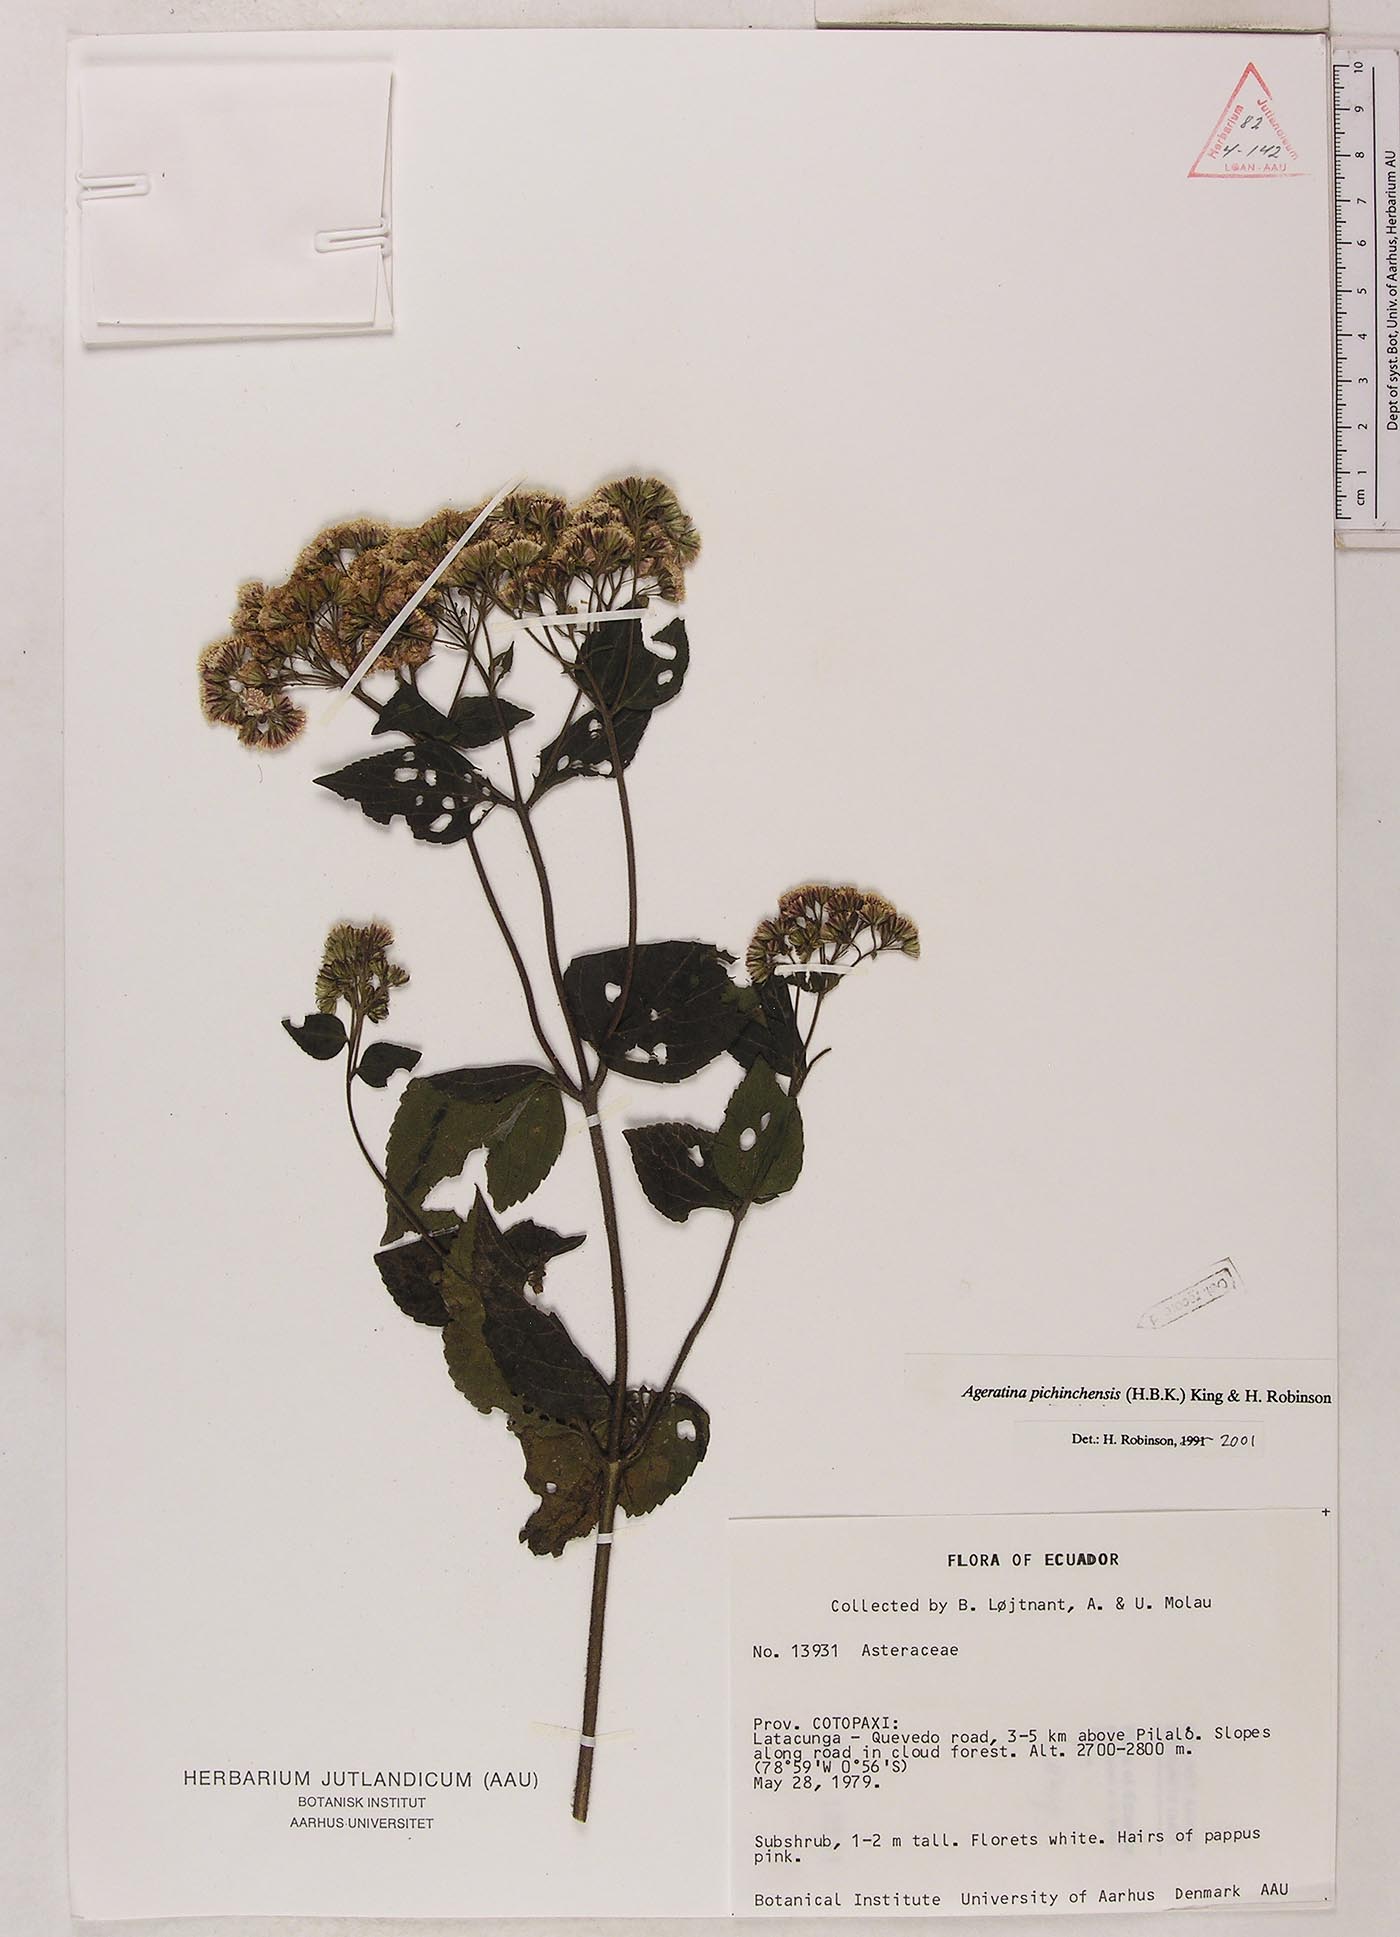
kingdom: Plantae
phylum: Tracheophyta
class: Magnoliopsida
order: Asterales
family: Asteraceae
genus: Ageratina
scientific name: Ageratina pichinchensis
